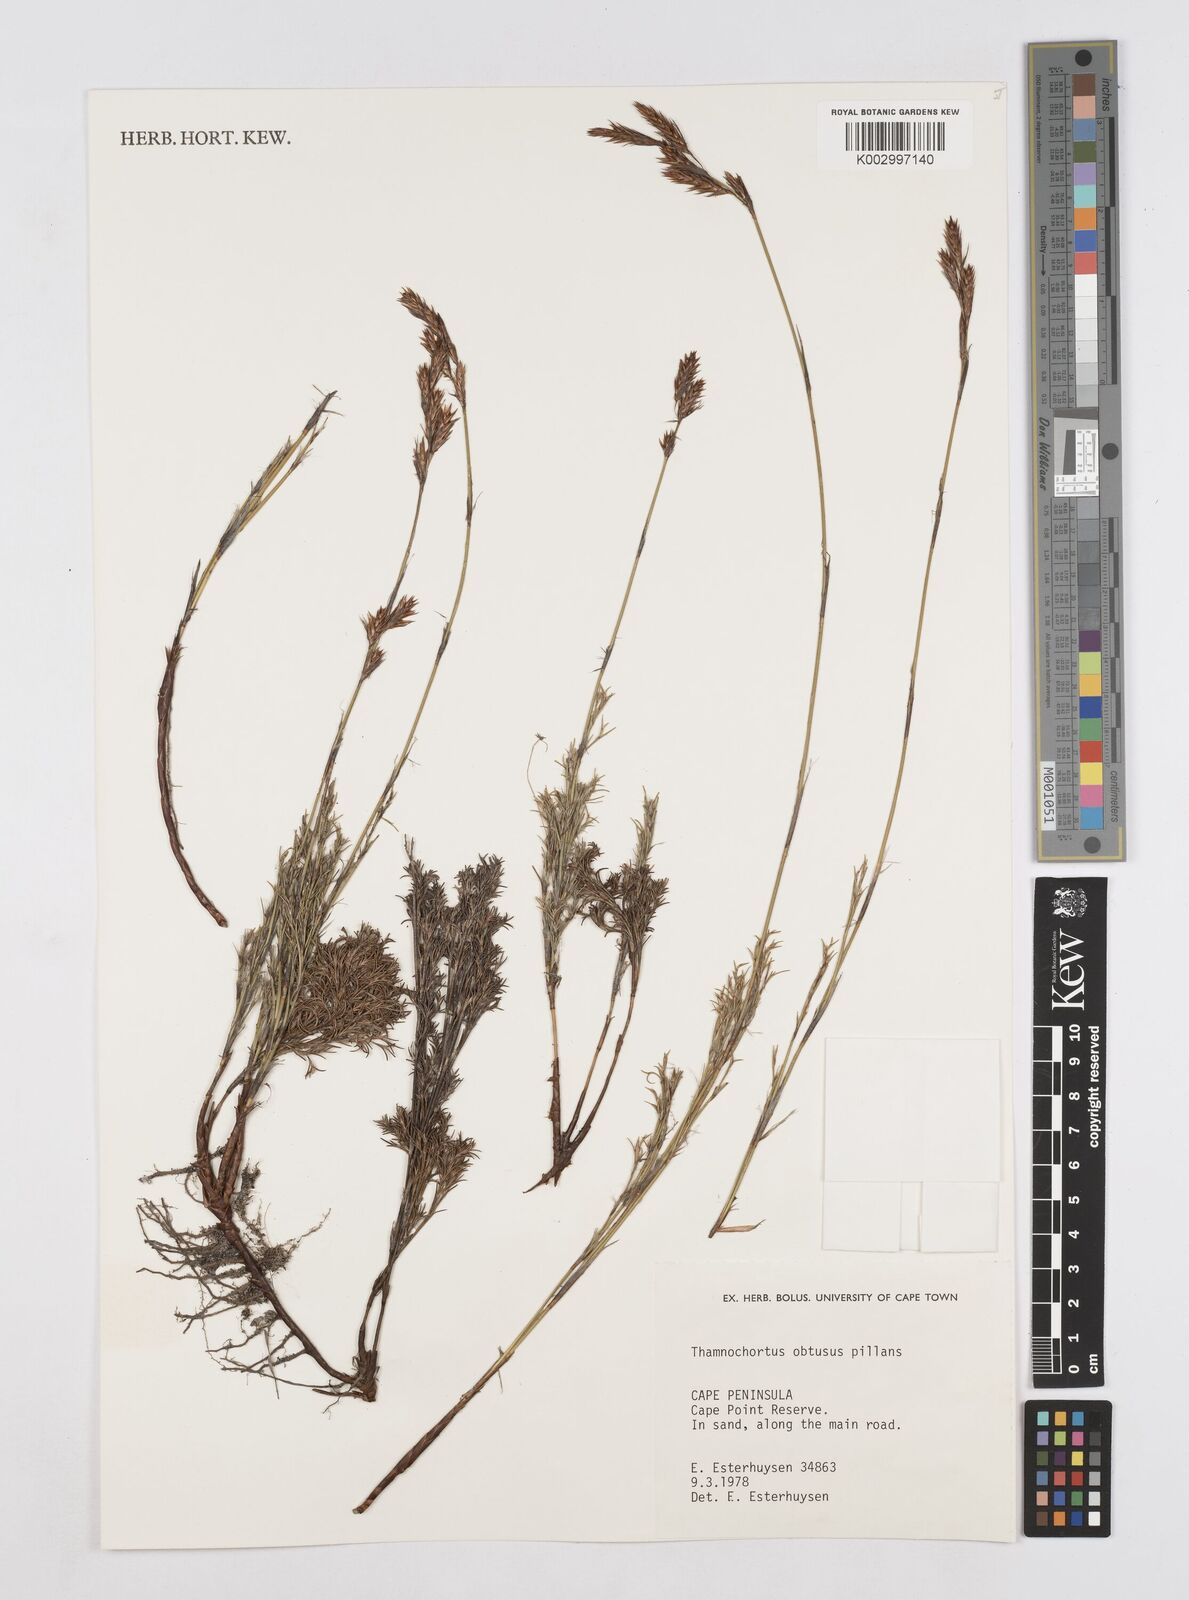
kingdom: Plantae
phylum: Tracheophyta
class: Liliopsida
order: Poales
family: Restionaceae
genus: Thamnochortus
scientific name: Thamnochortus obtusus
